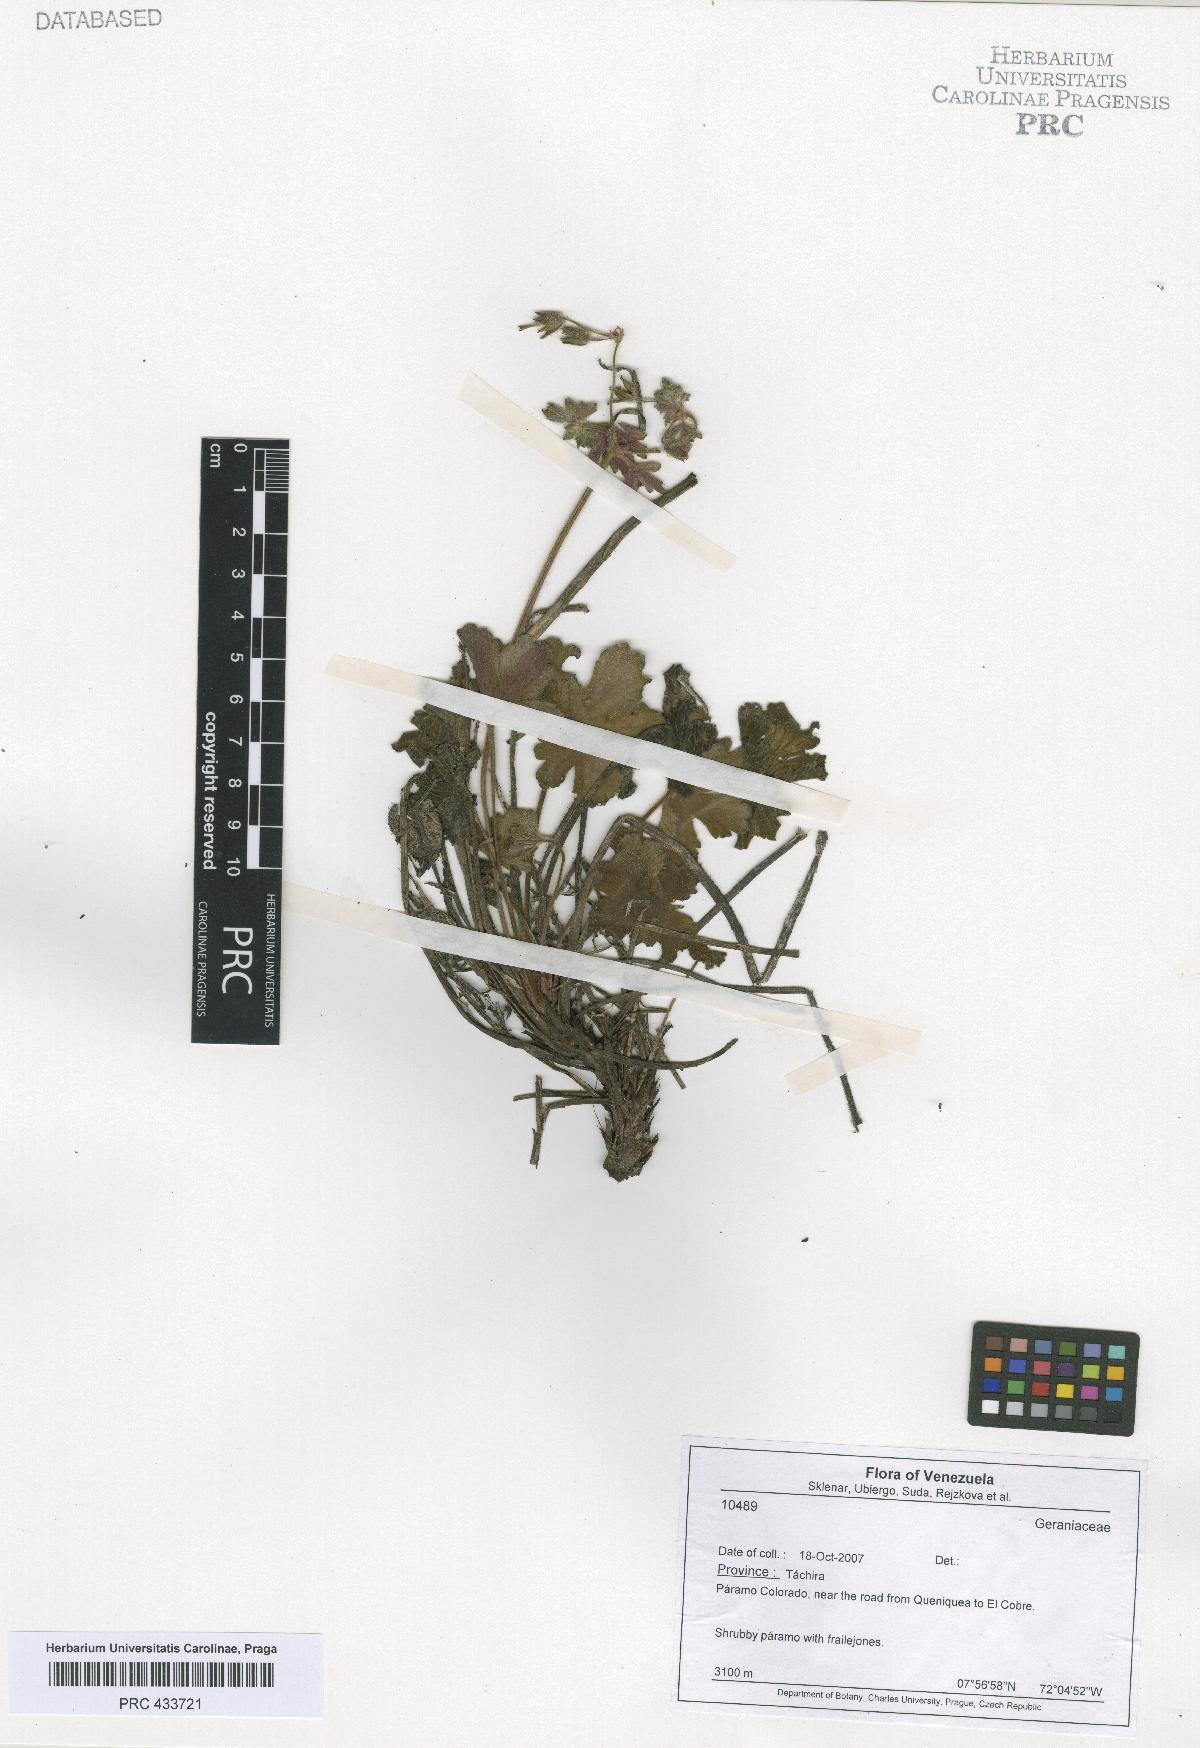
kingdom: Plantae
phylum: Tracheophyta
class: Magnoliopsida
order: Geraniales
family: Geraniaceae
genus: Geranium
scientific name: Geranium velutinum
